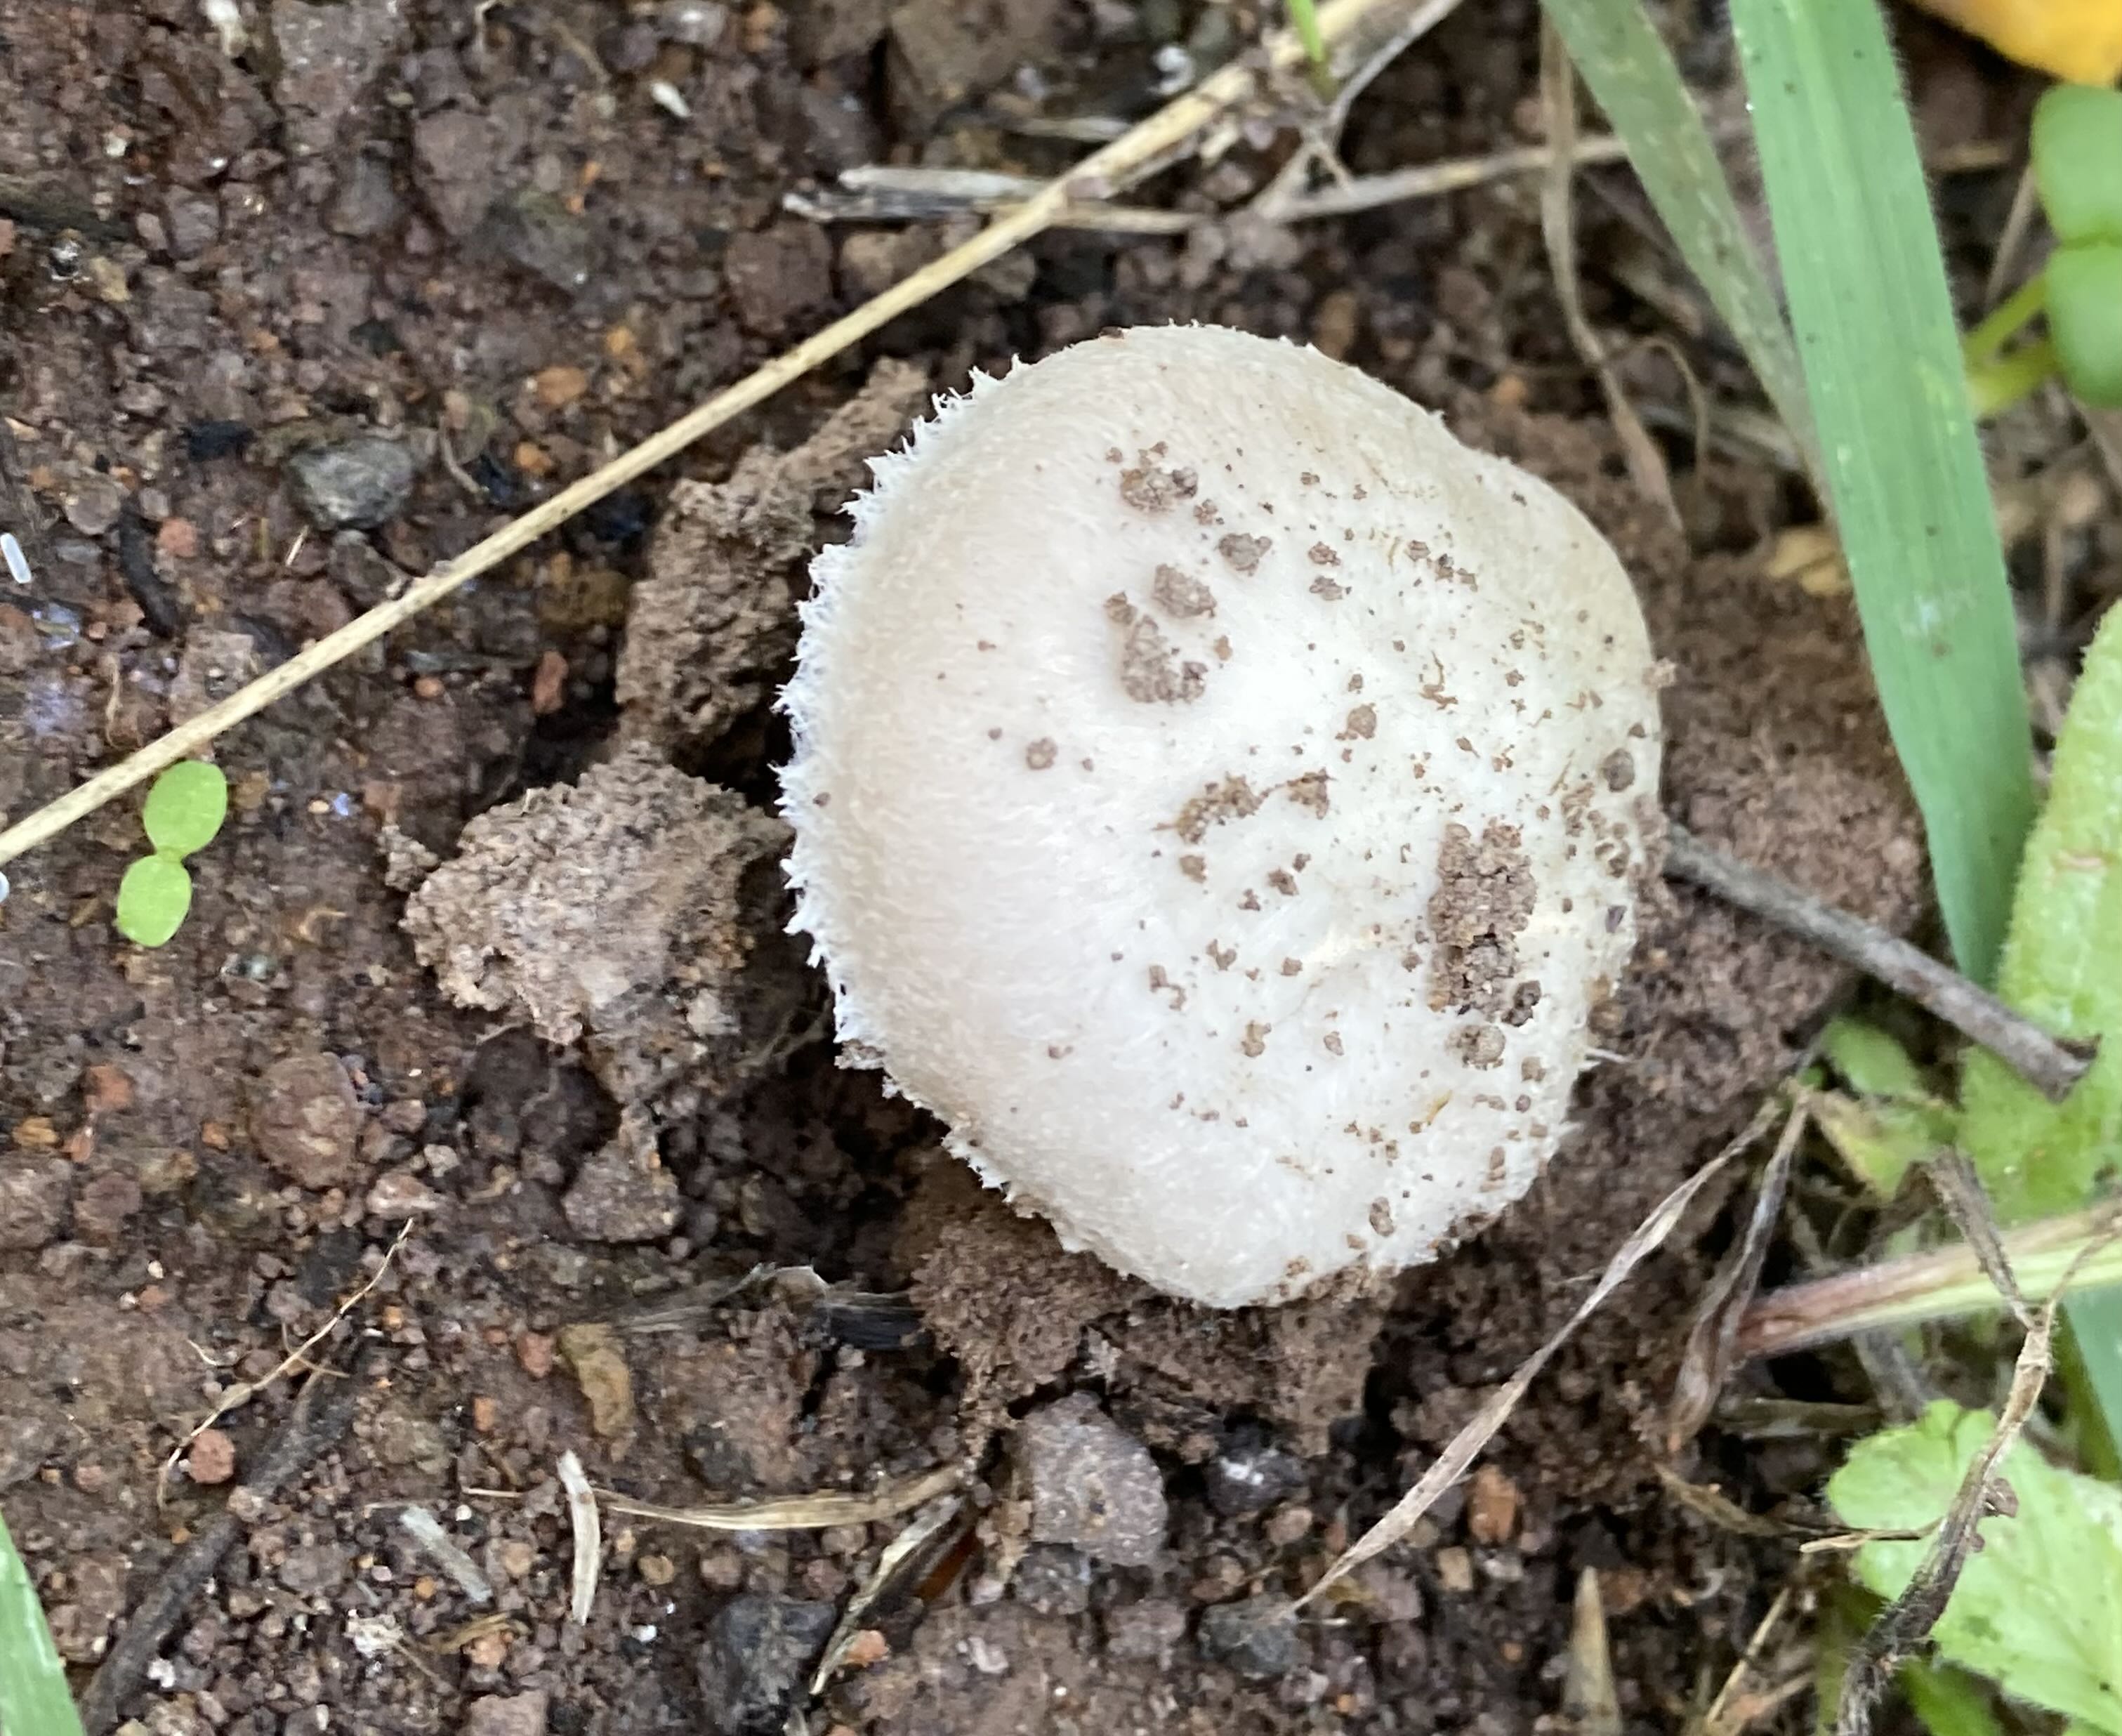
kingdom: Fungi
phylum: Basidiomycota
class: Agaricomycetes
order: Agaricales
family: Agaricaceae
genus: Agaricus
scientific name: Agaricus
